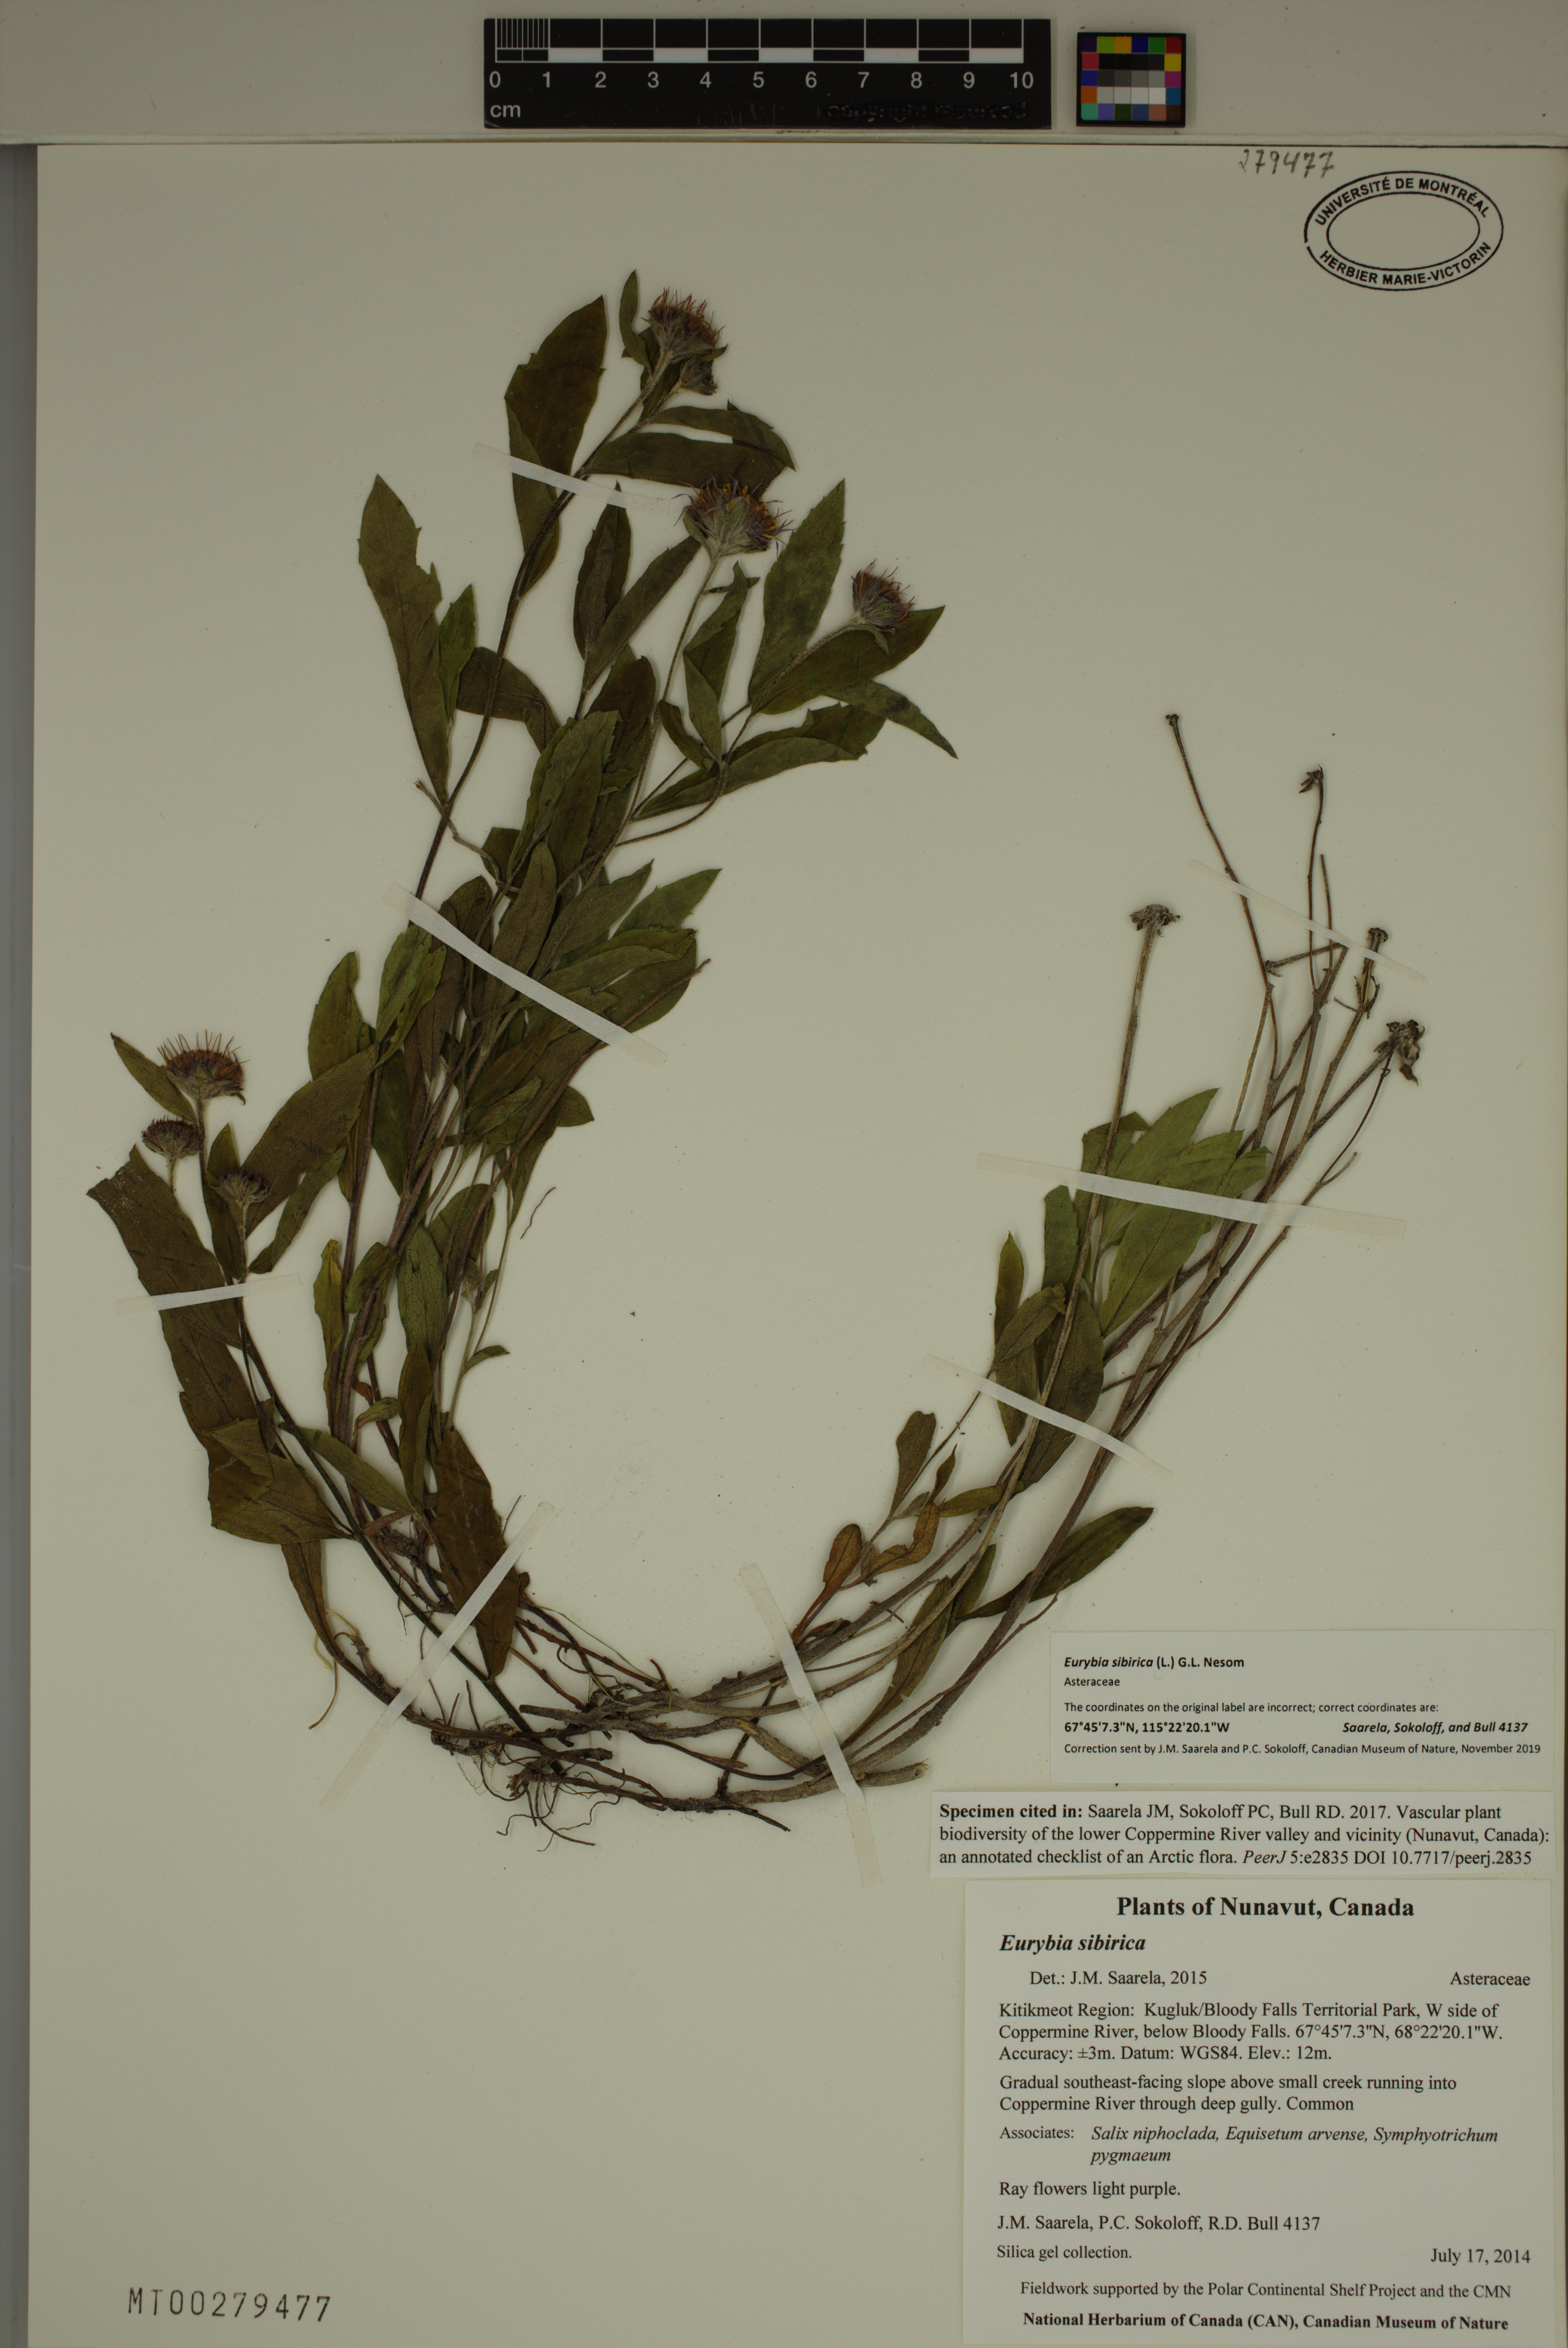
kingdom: Plantae
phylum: Tracheophyta
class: Magnoliopsida
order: Asterales
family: Asteraceae
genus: Eurybia
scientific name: Eurybia sibirica
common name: Arctic aster
